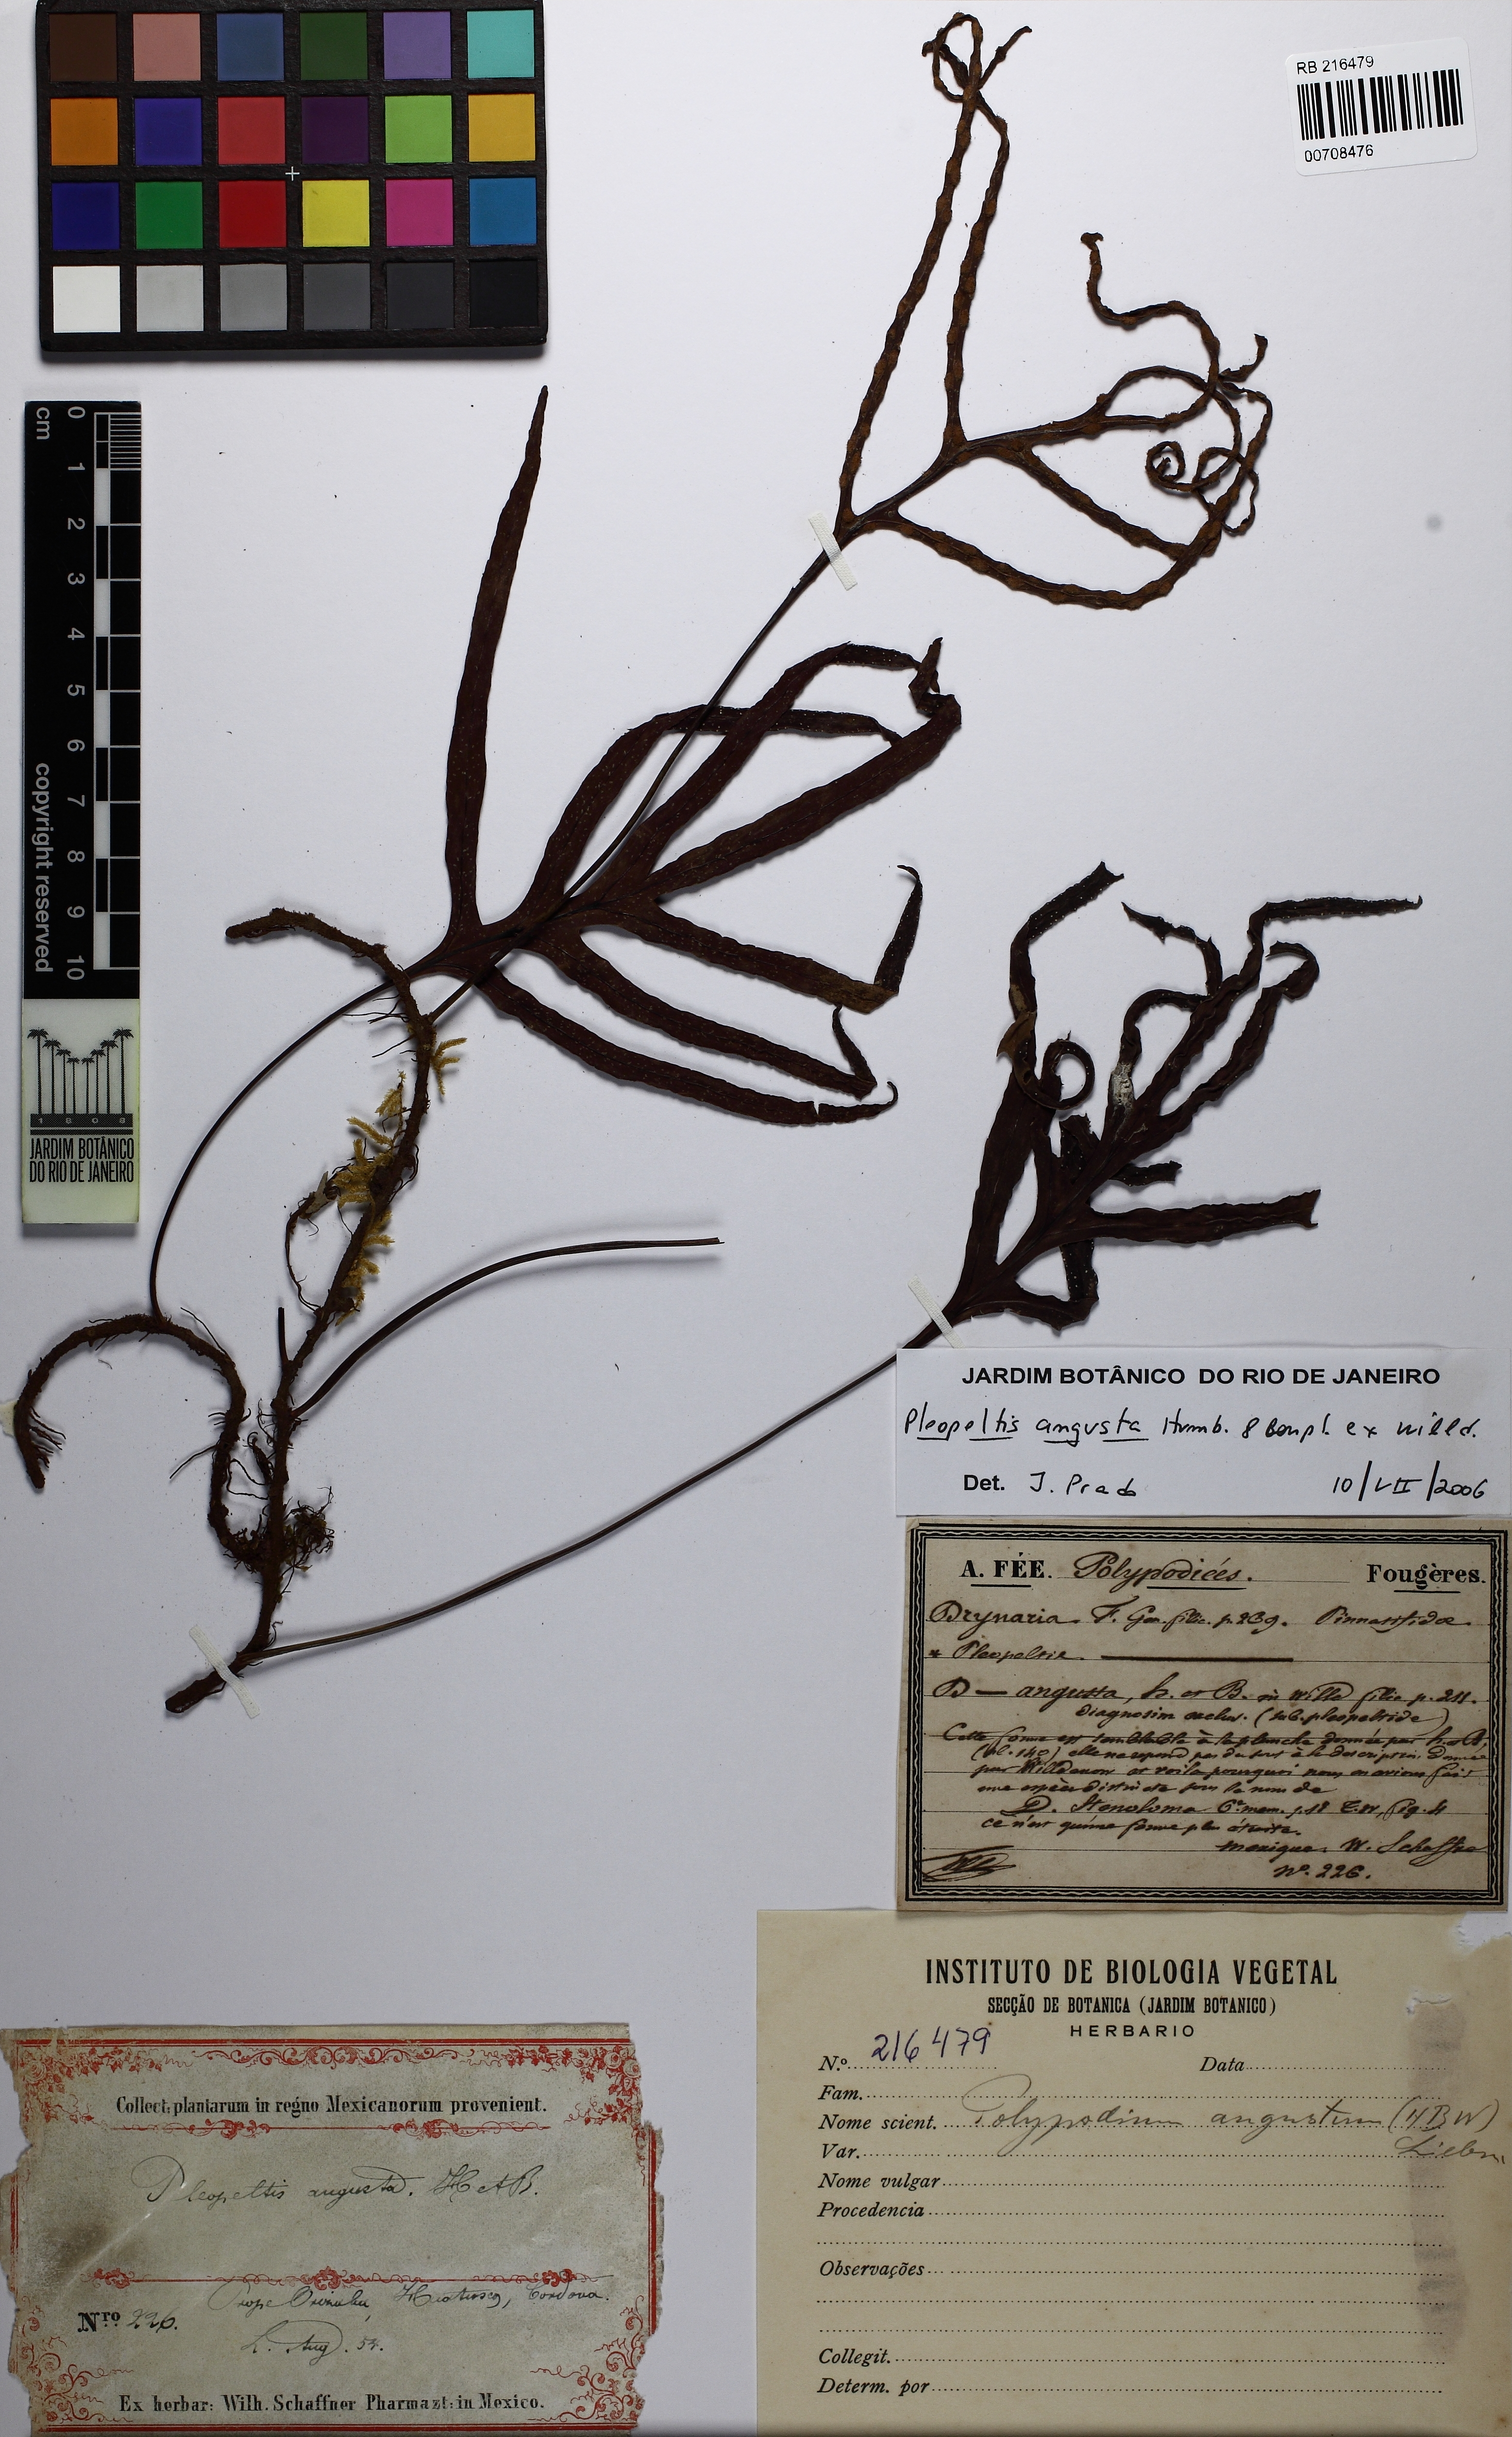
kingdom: Plantae
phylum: Tracheophyta
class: Polypodiopsida
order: Polypodiales
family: Polypodiaceae
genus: Pleopeltis
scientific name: Pleopeltis angusta
